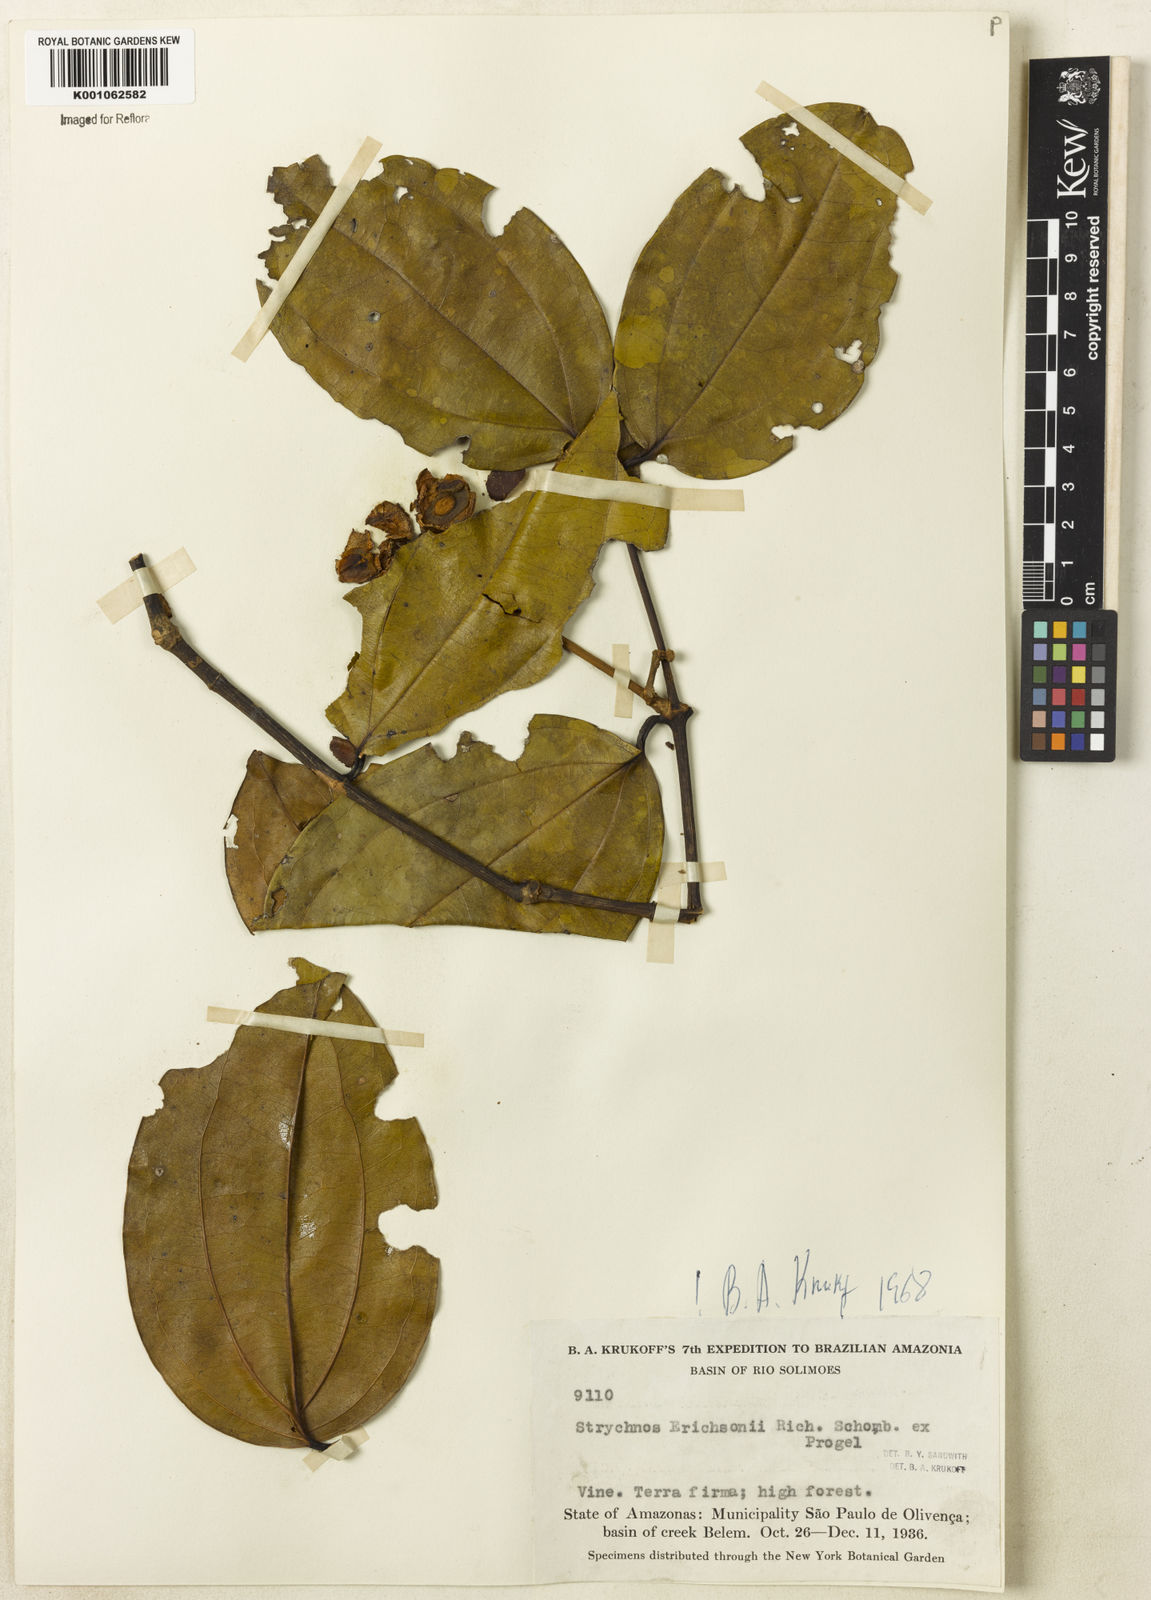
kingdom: Plantae
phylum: Tracheophyta
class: Magnoliopsida
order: Gentianales
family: Loganiaceae
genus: Strychnos
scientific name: Strychnos erichsonii
